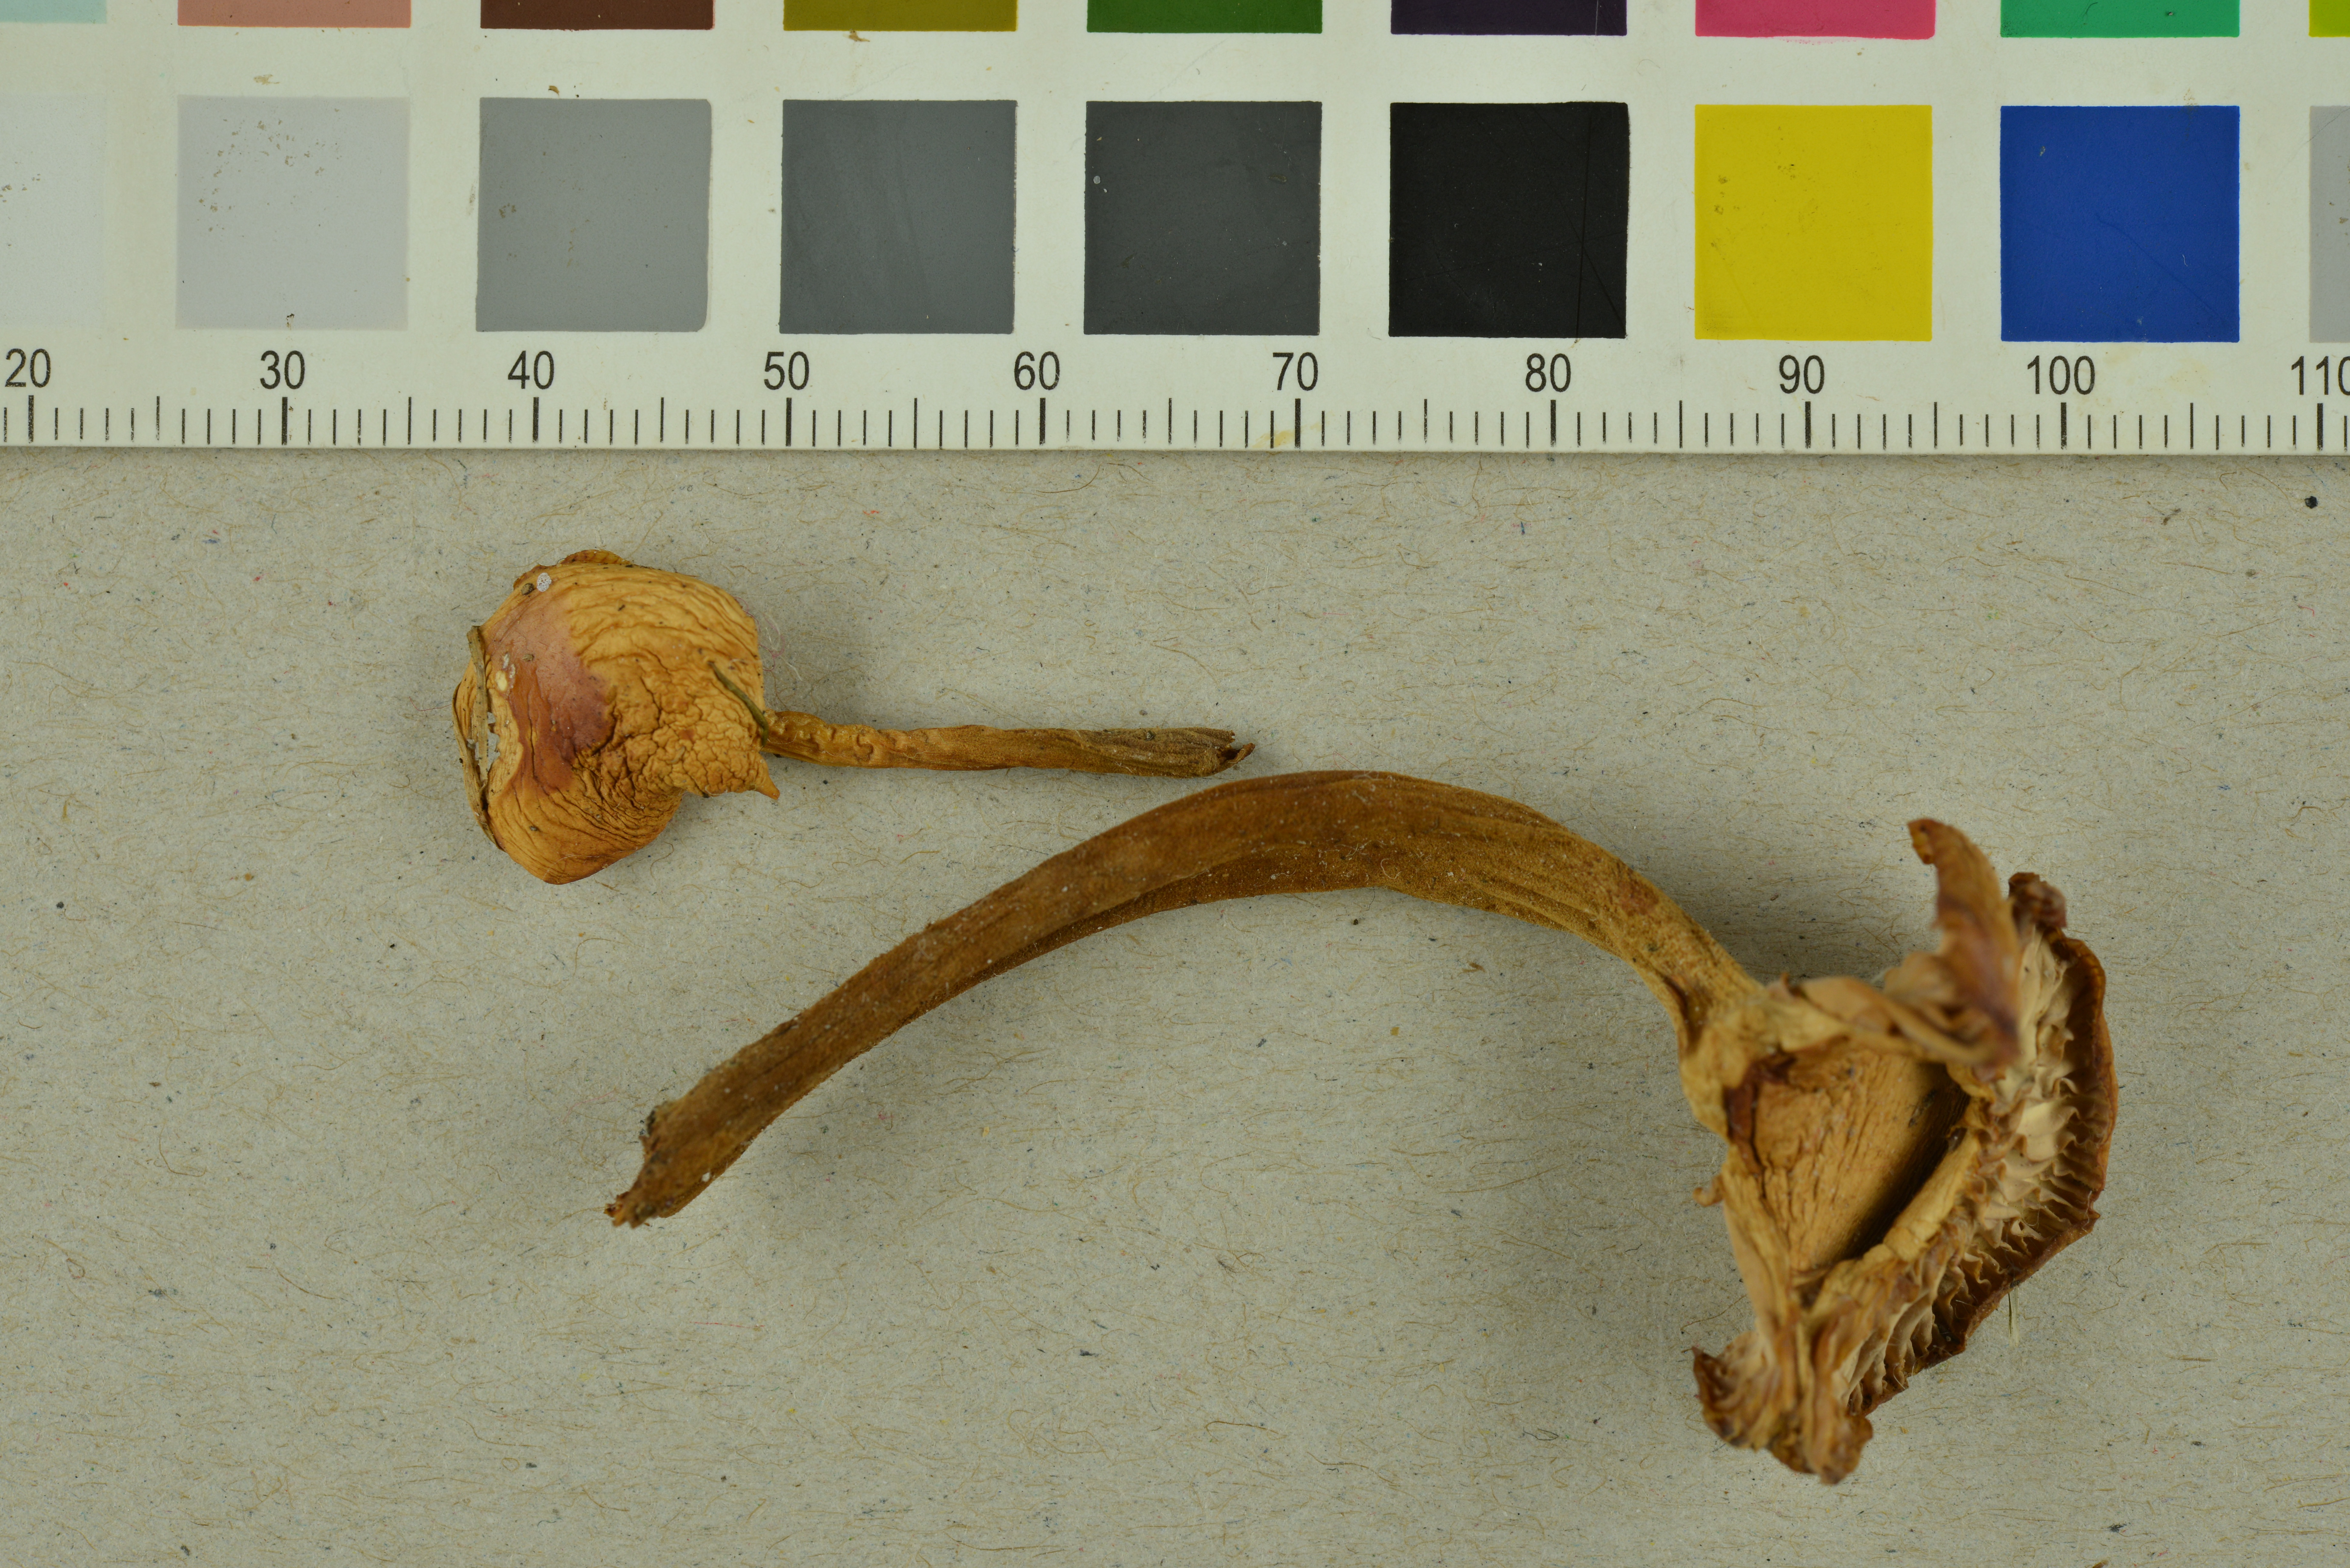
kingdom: Fungi
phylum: Basidiomycota
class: Agaricomycetes
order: Agaricales
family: Physalacriaceae
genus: Flammulina
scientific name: Flammulina
